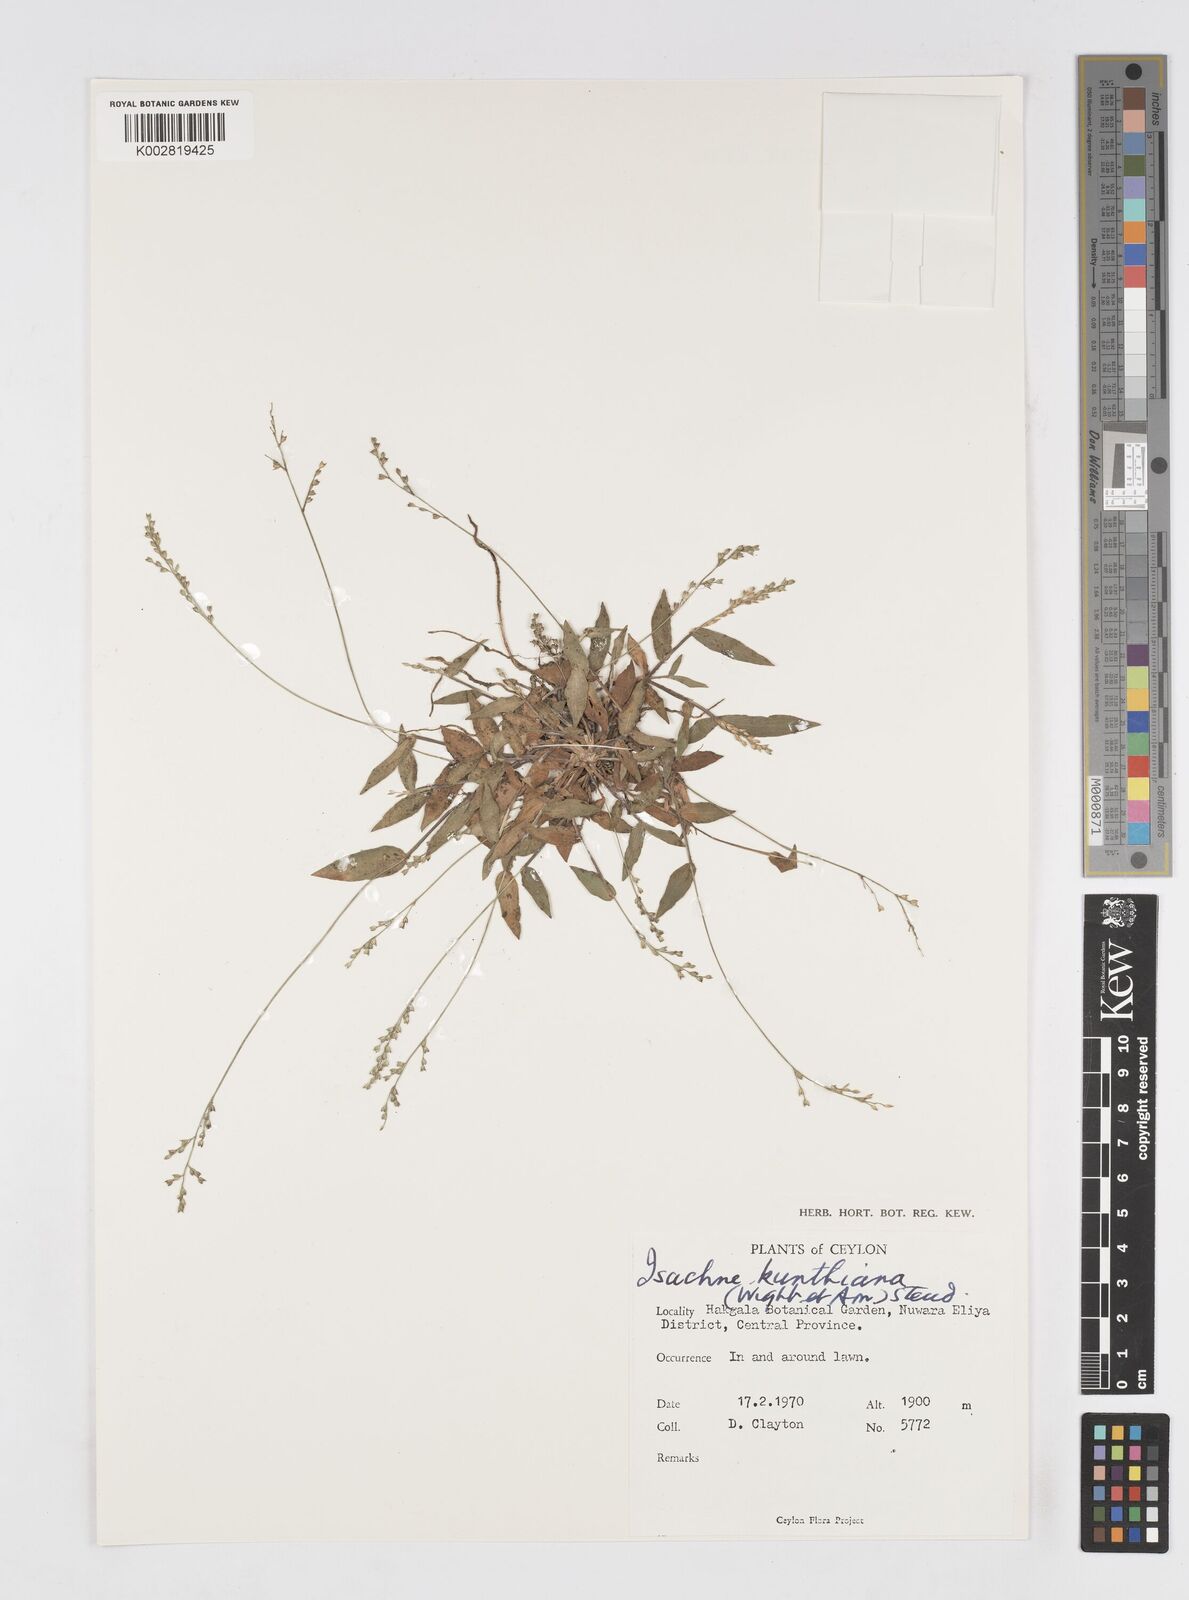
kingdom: Plantae
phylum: Tracheophyta
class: Liliopsida
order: Poales
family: Poaceae
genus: Isachne
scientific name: Isachne kunthiana
